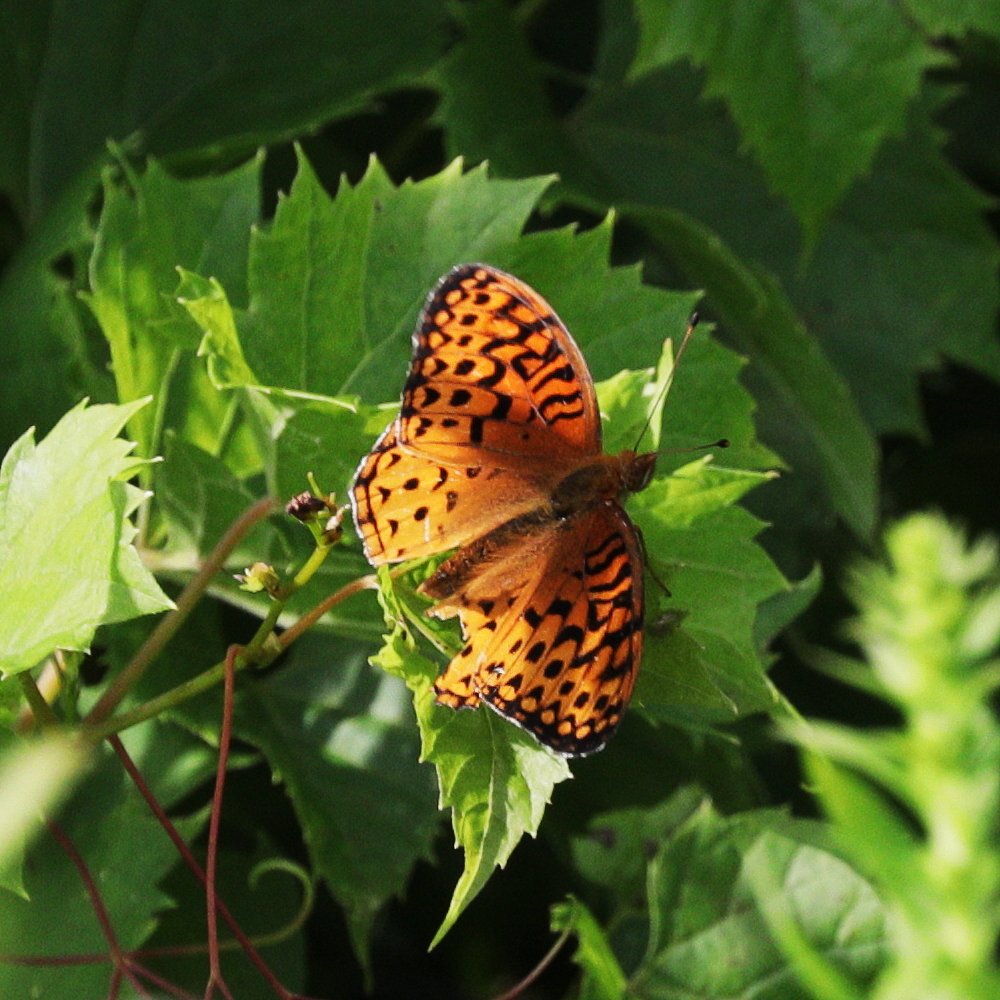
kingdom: Animalia
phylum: Arthropoda
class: Insecta
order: Lepidoptera
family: Nymphalidae
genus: Speyeria
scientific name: Speyeria aphrodite
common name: Aphrodite Fritillary
